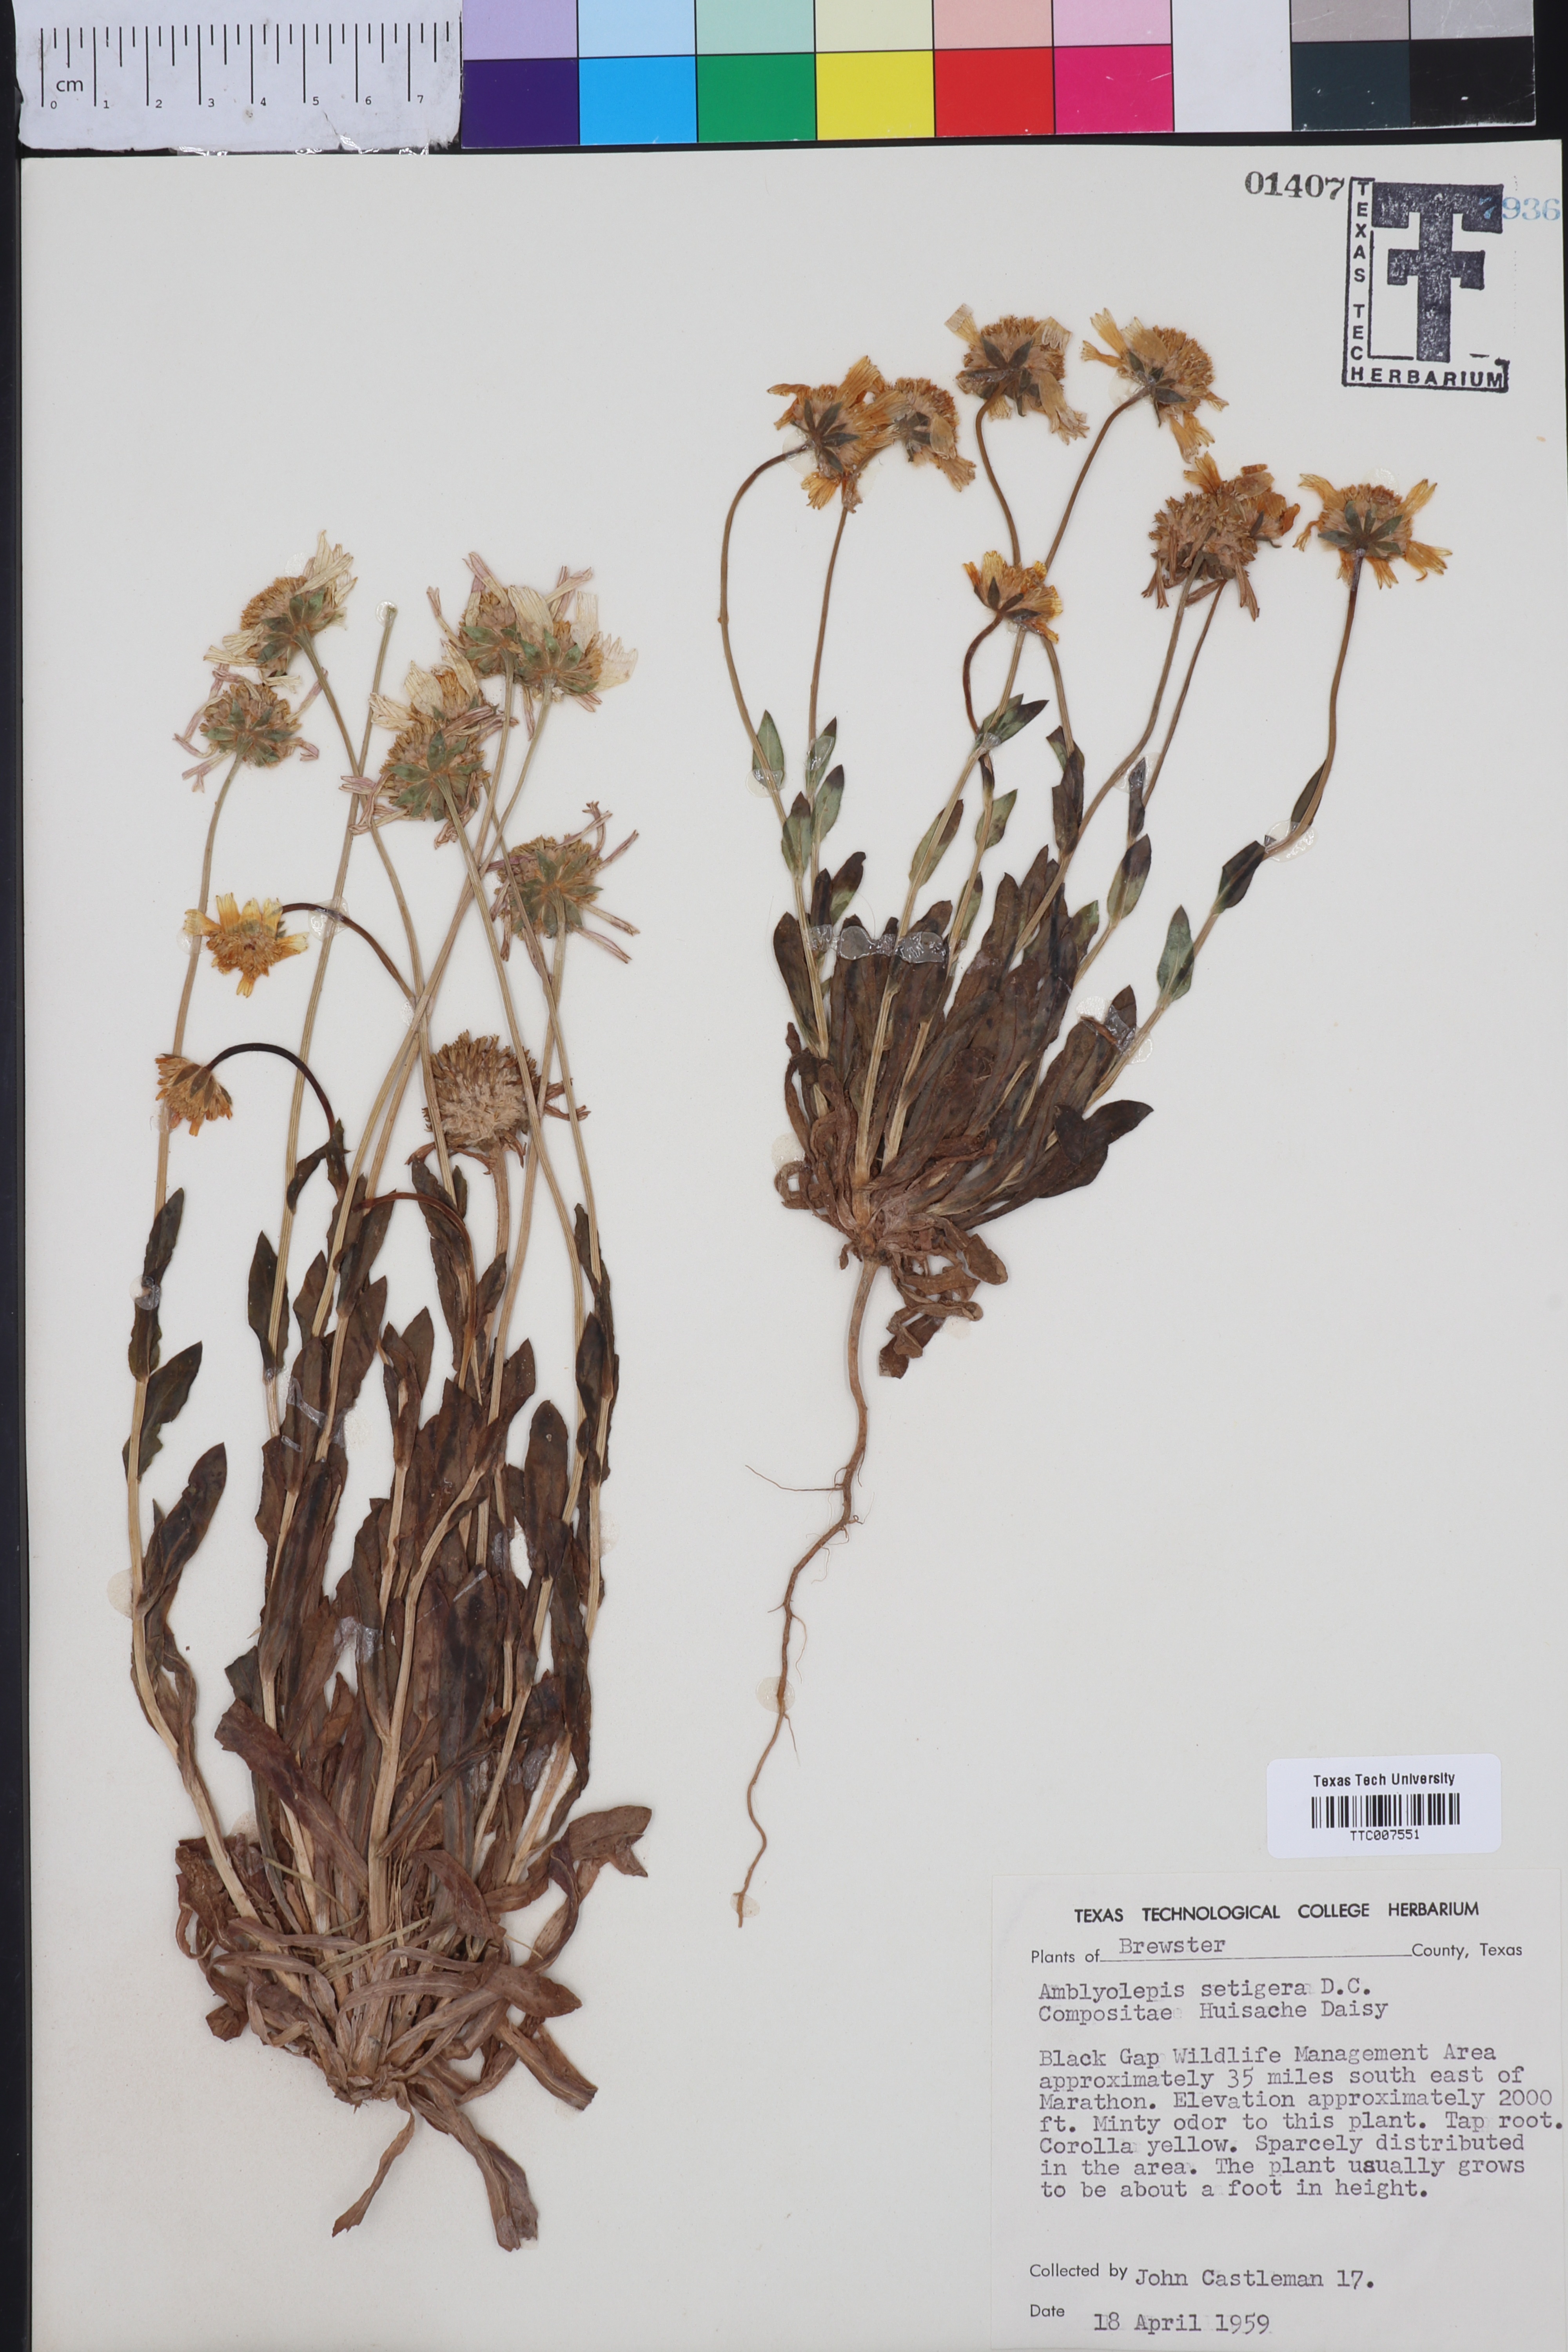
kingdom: Plantae
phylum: Tracheophyta
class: Magnoliopsida
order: Asterales
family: Asteraceae
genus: Amblyolepis
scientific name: Amblyolepis setigera
